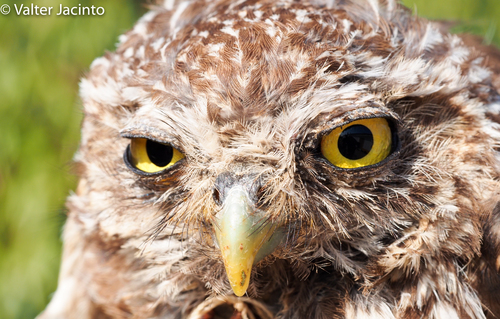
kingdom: Animalia
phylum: Chordata
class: Aves
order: Strigiformes
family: Strigidae
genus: Athene
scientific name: Athene noctua
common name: Little owl
